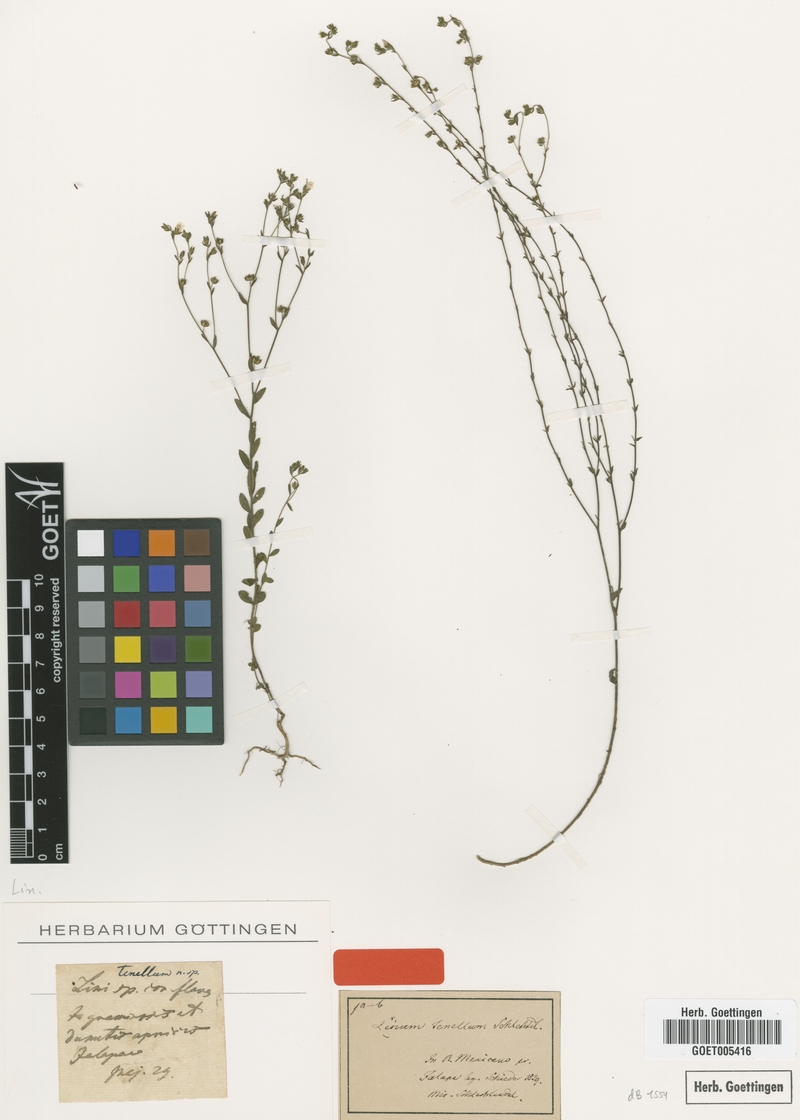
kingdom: Plantae
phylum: Tracheophyta
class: Magnoliopsida
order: Malpighiales
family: Linaceae
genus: Linum
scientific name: Linum tenellum
